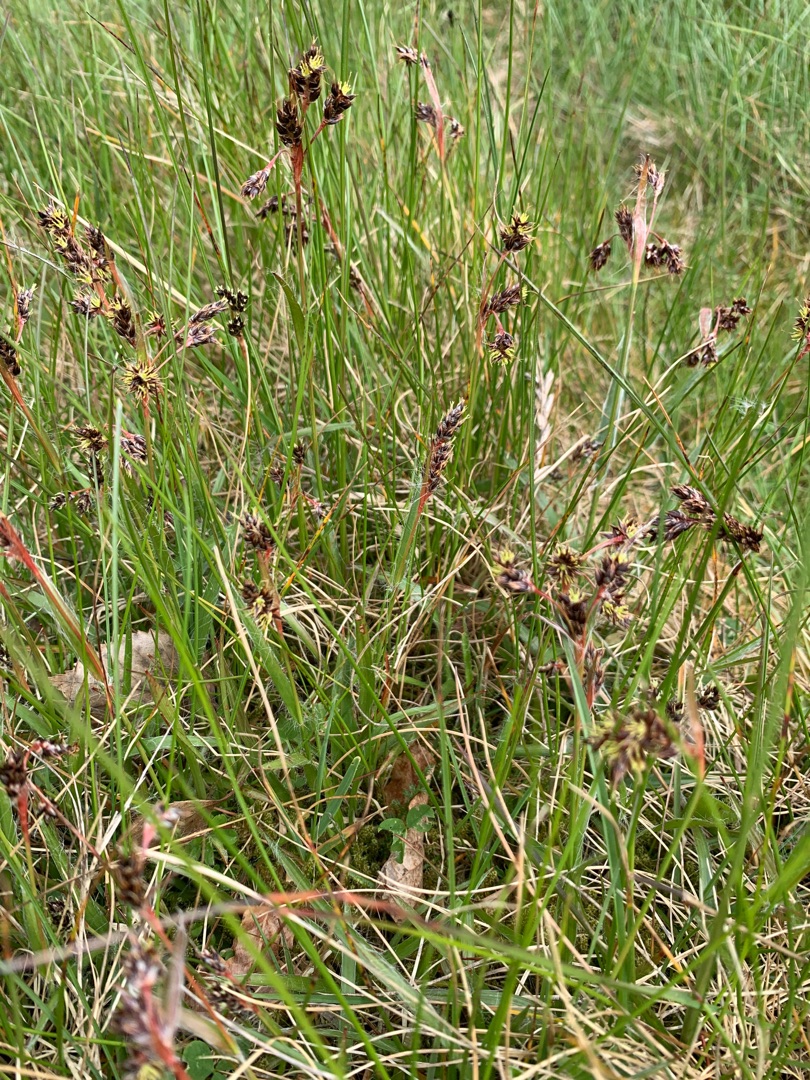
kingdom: Plantae
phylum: Tracheophyta
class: Liliopsida
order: Poales
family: Juncaceae
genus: Luzula
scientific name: Luzula campestris
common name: Mark-frytle
